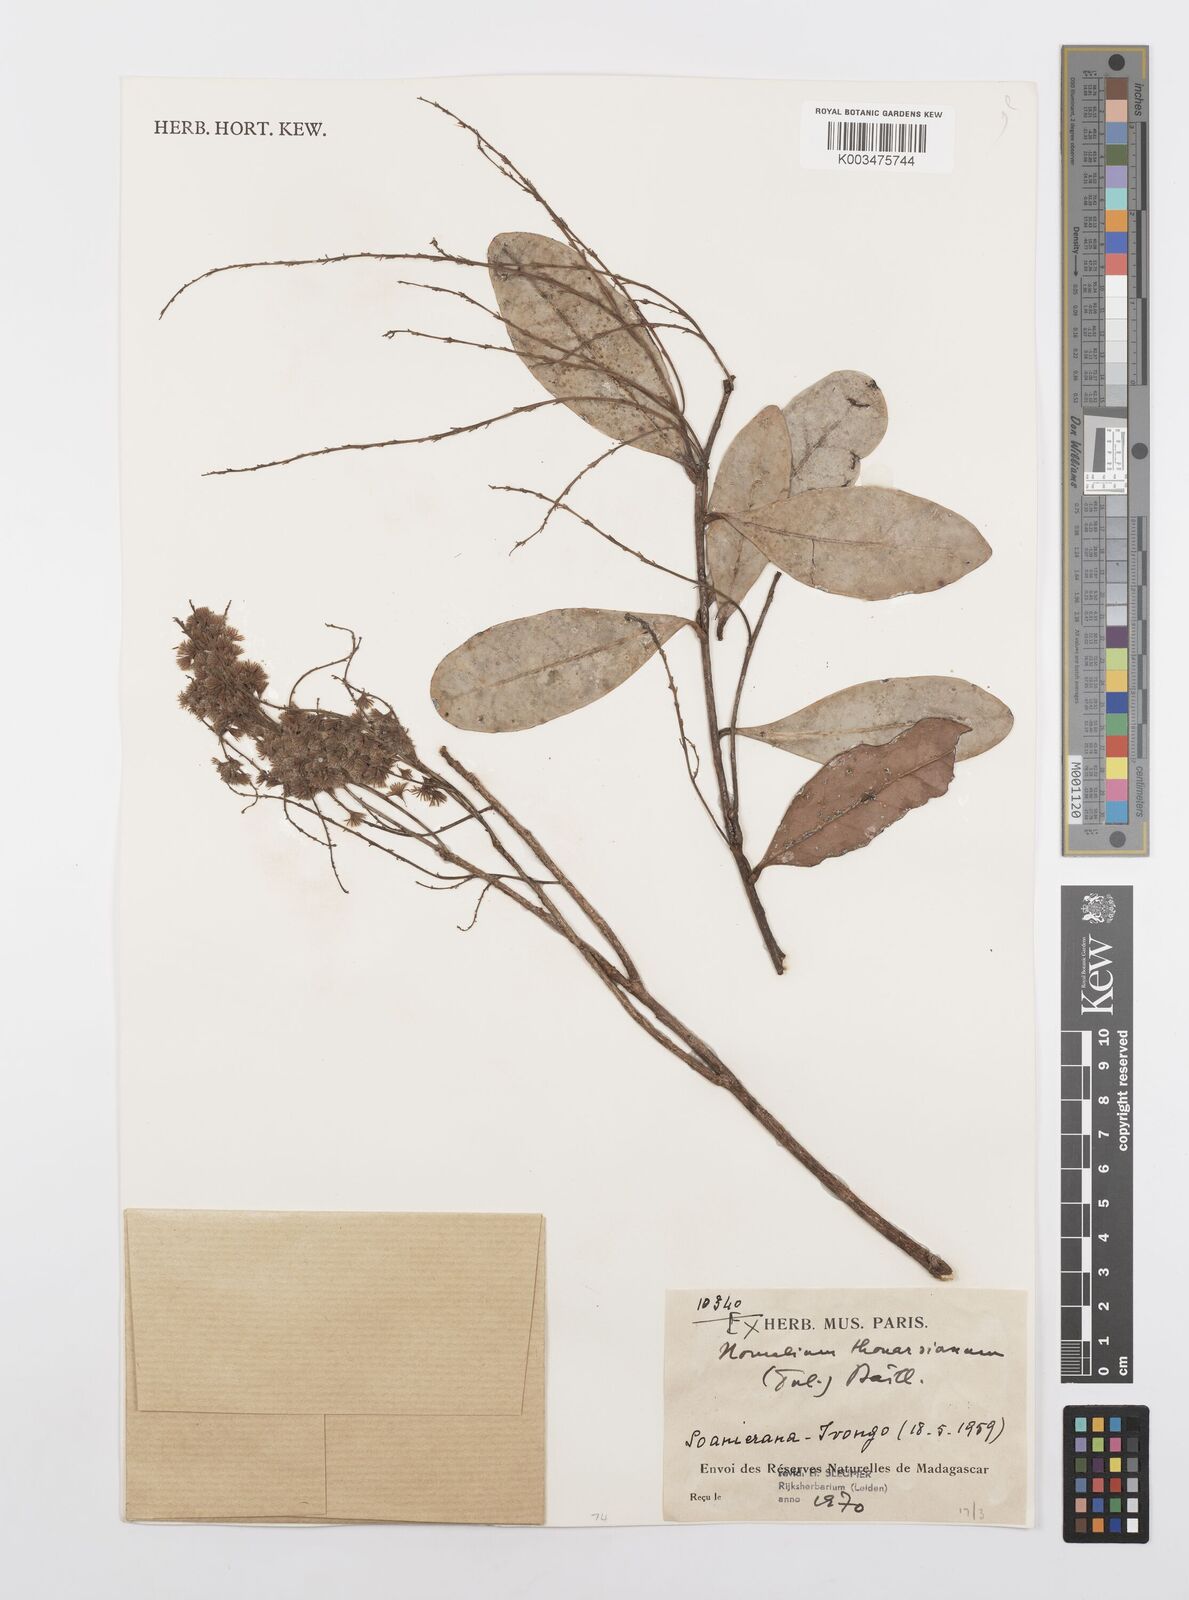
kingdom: Plantae
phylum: Tracheophyta
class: Magnoliopsida
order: Malpighiales
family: Salicaceae
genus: Homalium
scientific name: Homalium thuarsianum
